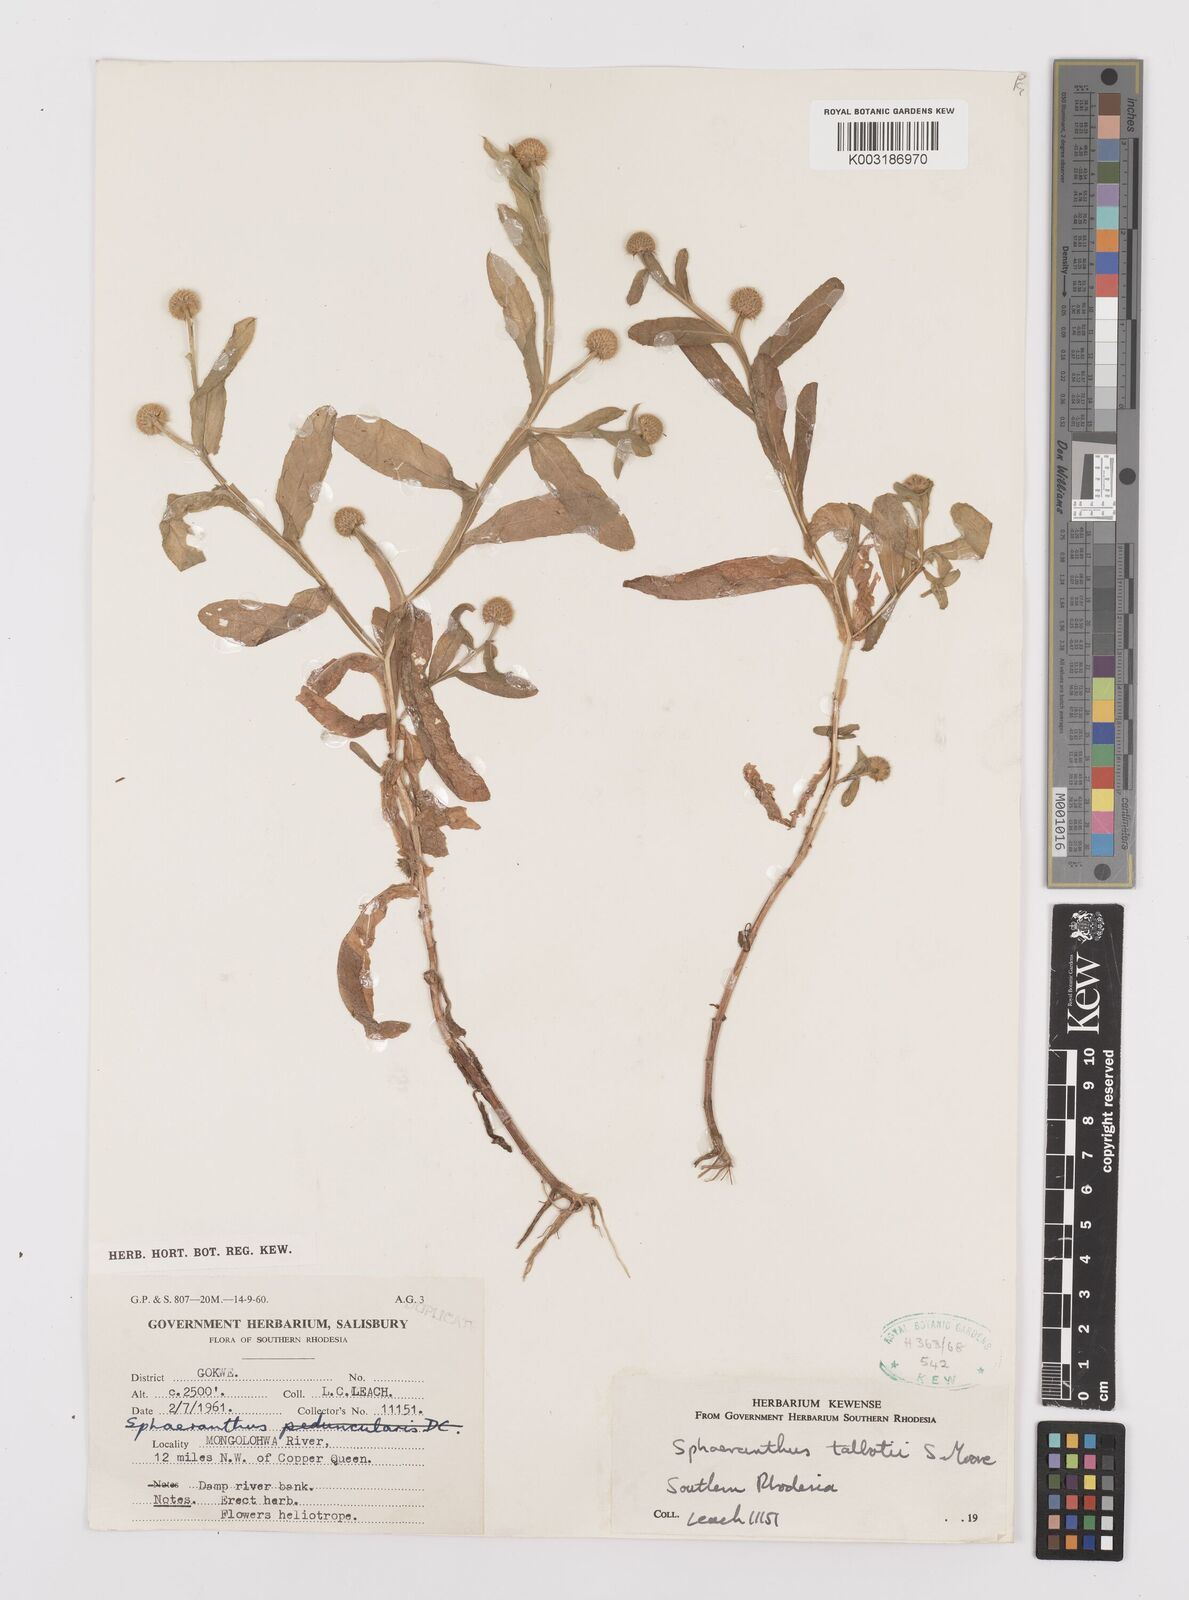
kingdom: Plantae
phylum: Tracheophyta
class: Magnoliopsida
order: Asterales
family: Asteraceae
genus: Sphaeranthus
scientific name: Sphaeranthus talbotii
